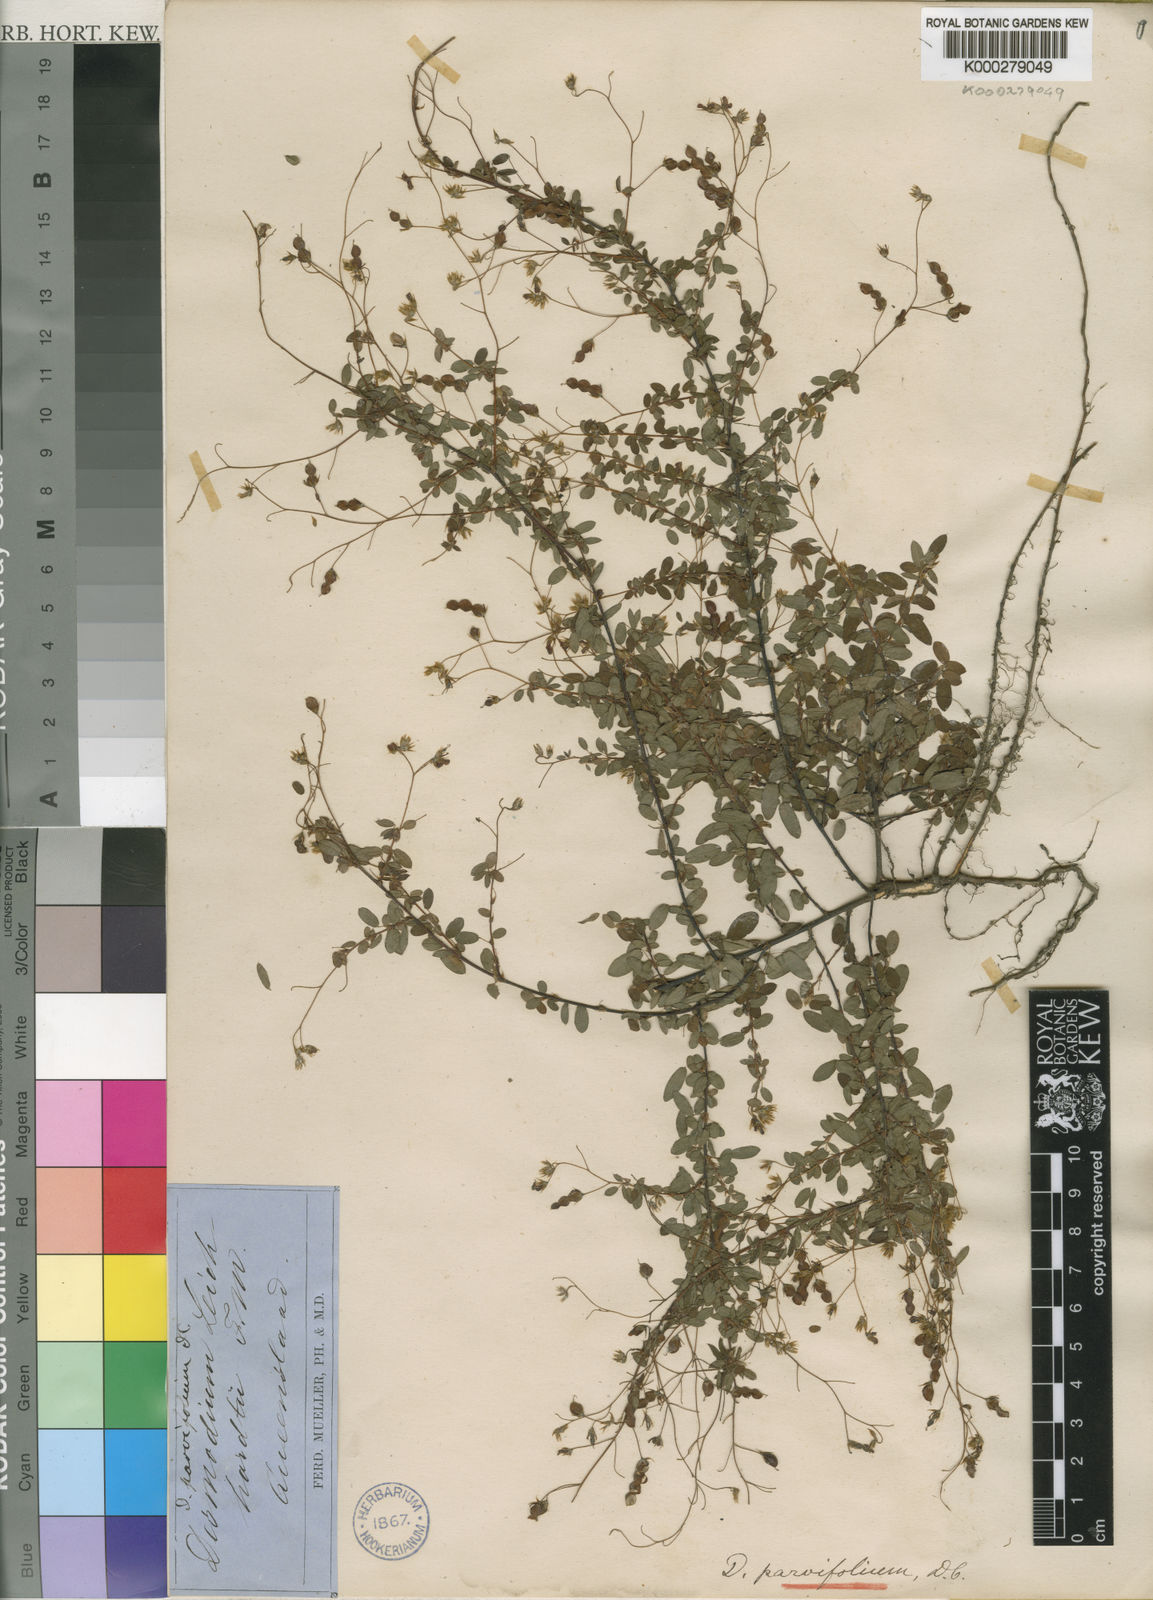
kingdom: Plantae
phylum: Tracheophyta
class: Magnoliopsida
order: Fabales
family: Fabaceae
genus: Leptodesmia
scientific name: Leptodesmia microphylla
